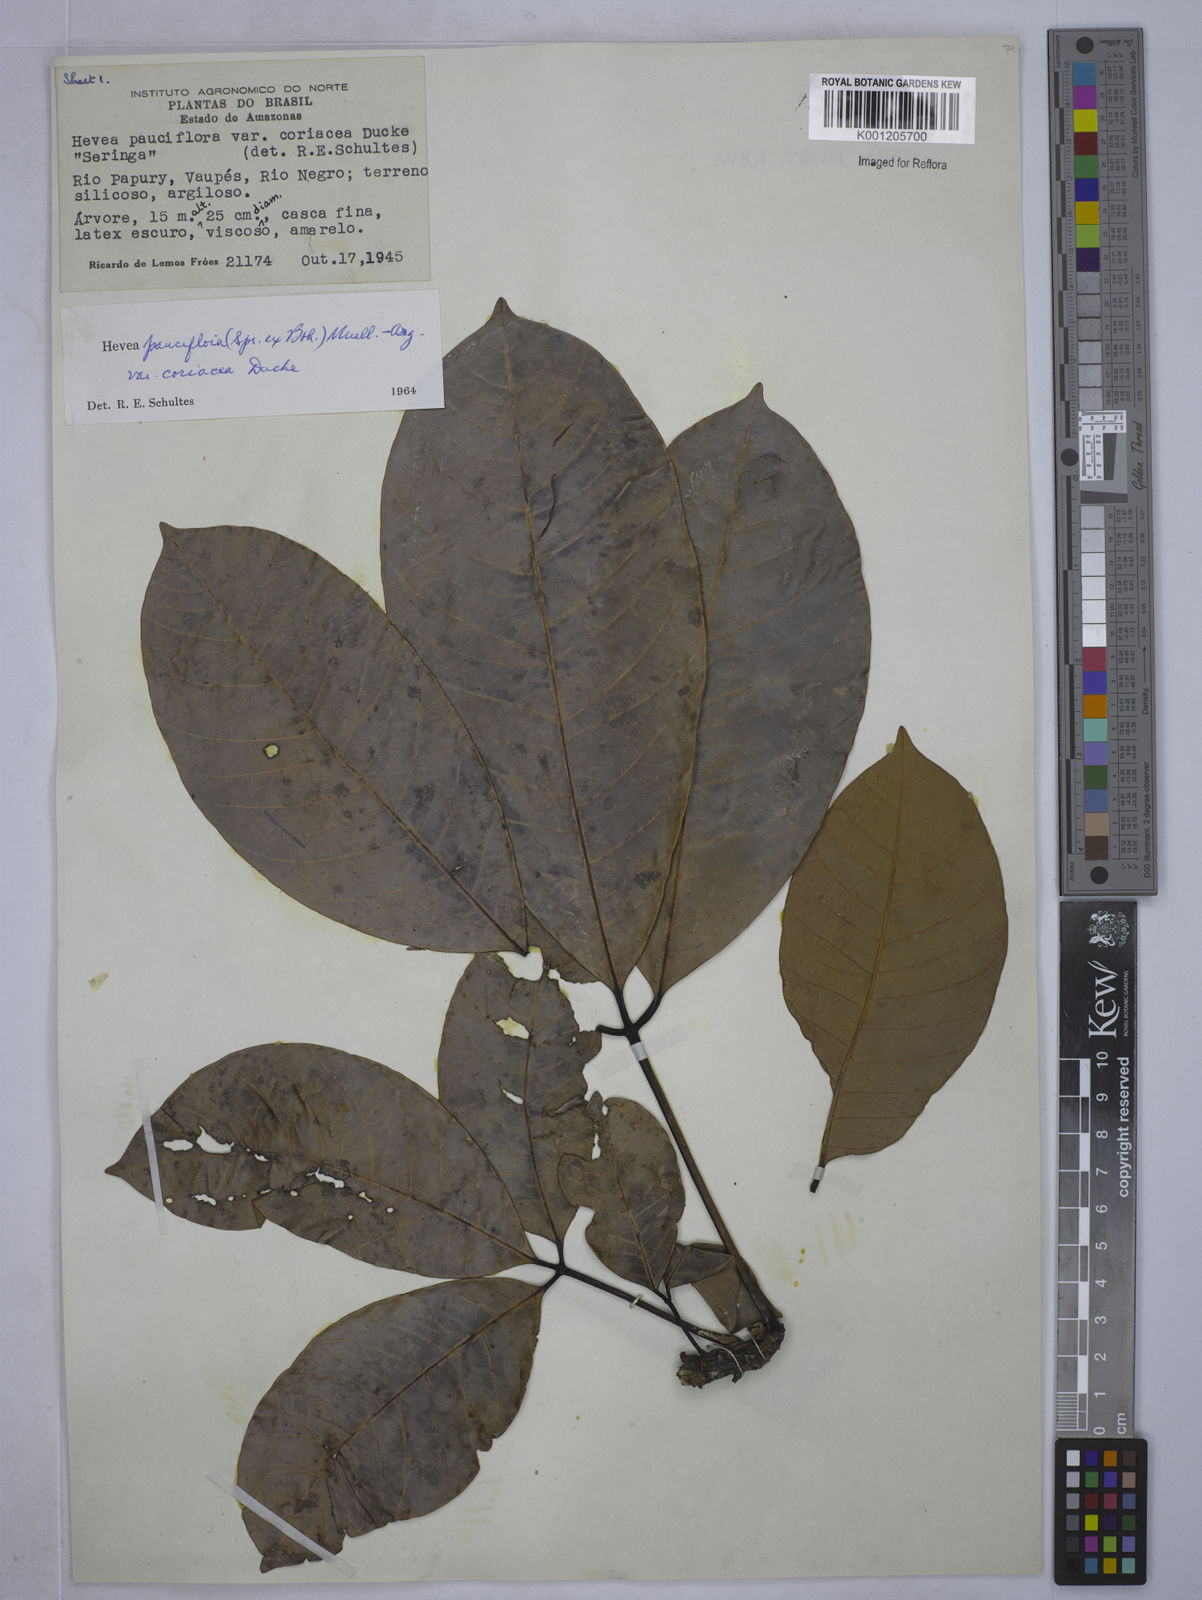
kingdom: Plantae
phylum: Tracheophyta
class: Magnoliopsida
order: Malpighiales
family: Euphorbiaceae
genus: Hevea
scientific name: Hevea pauciflora
